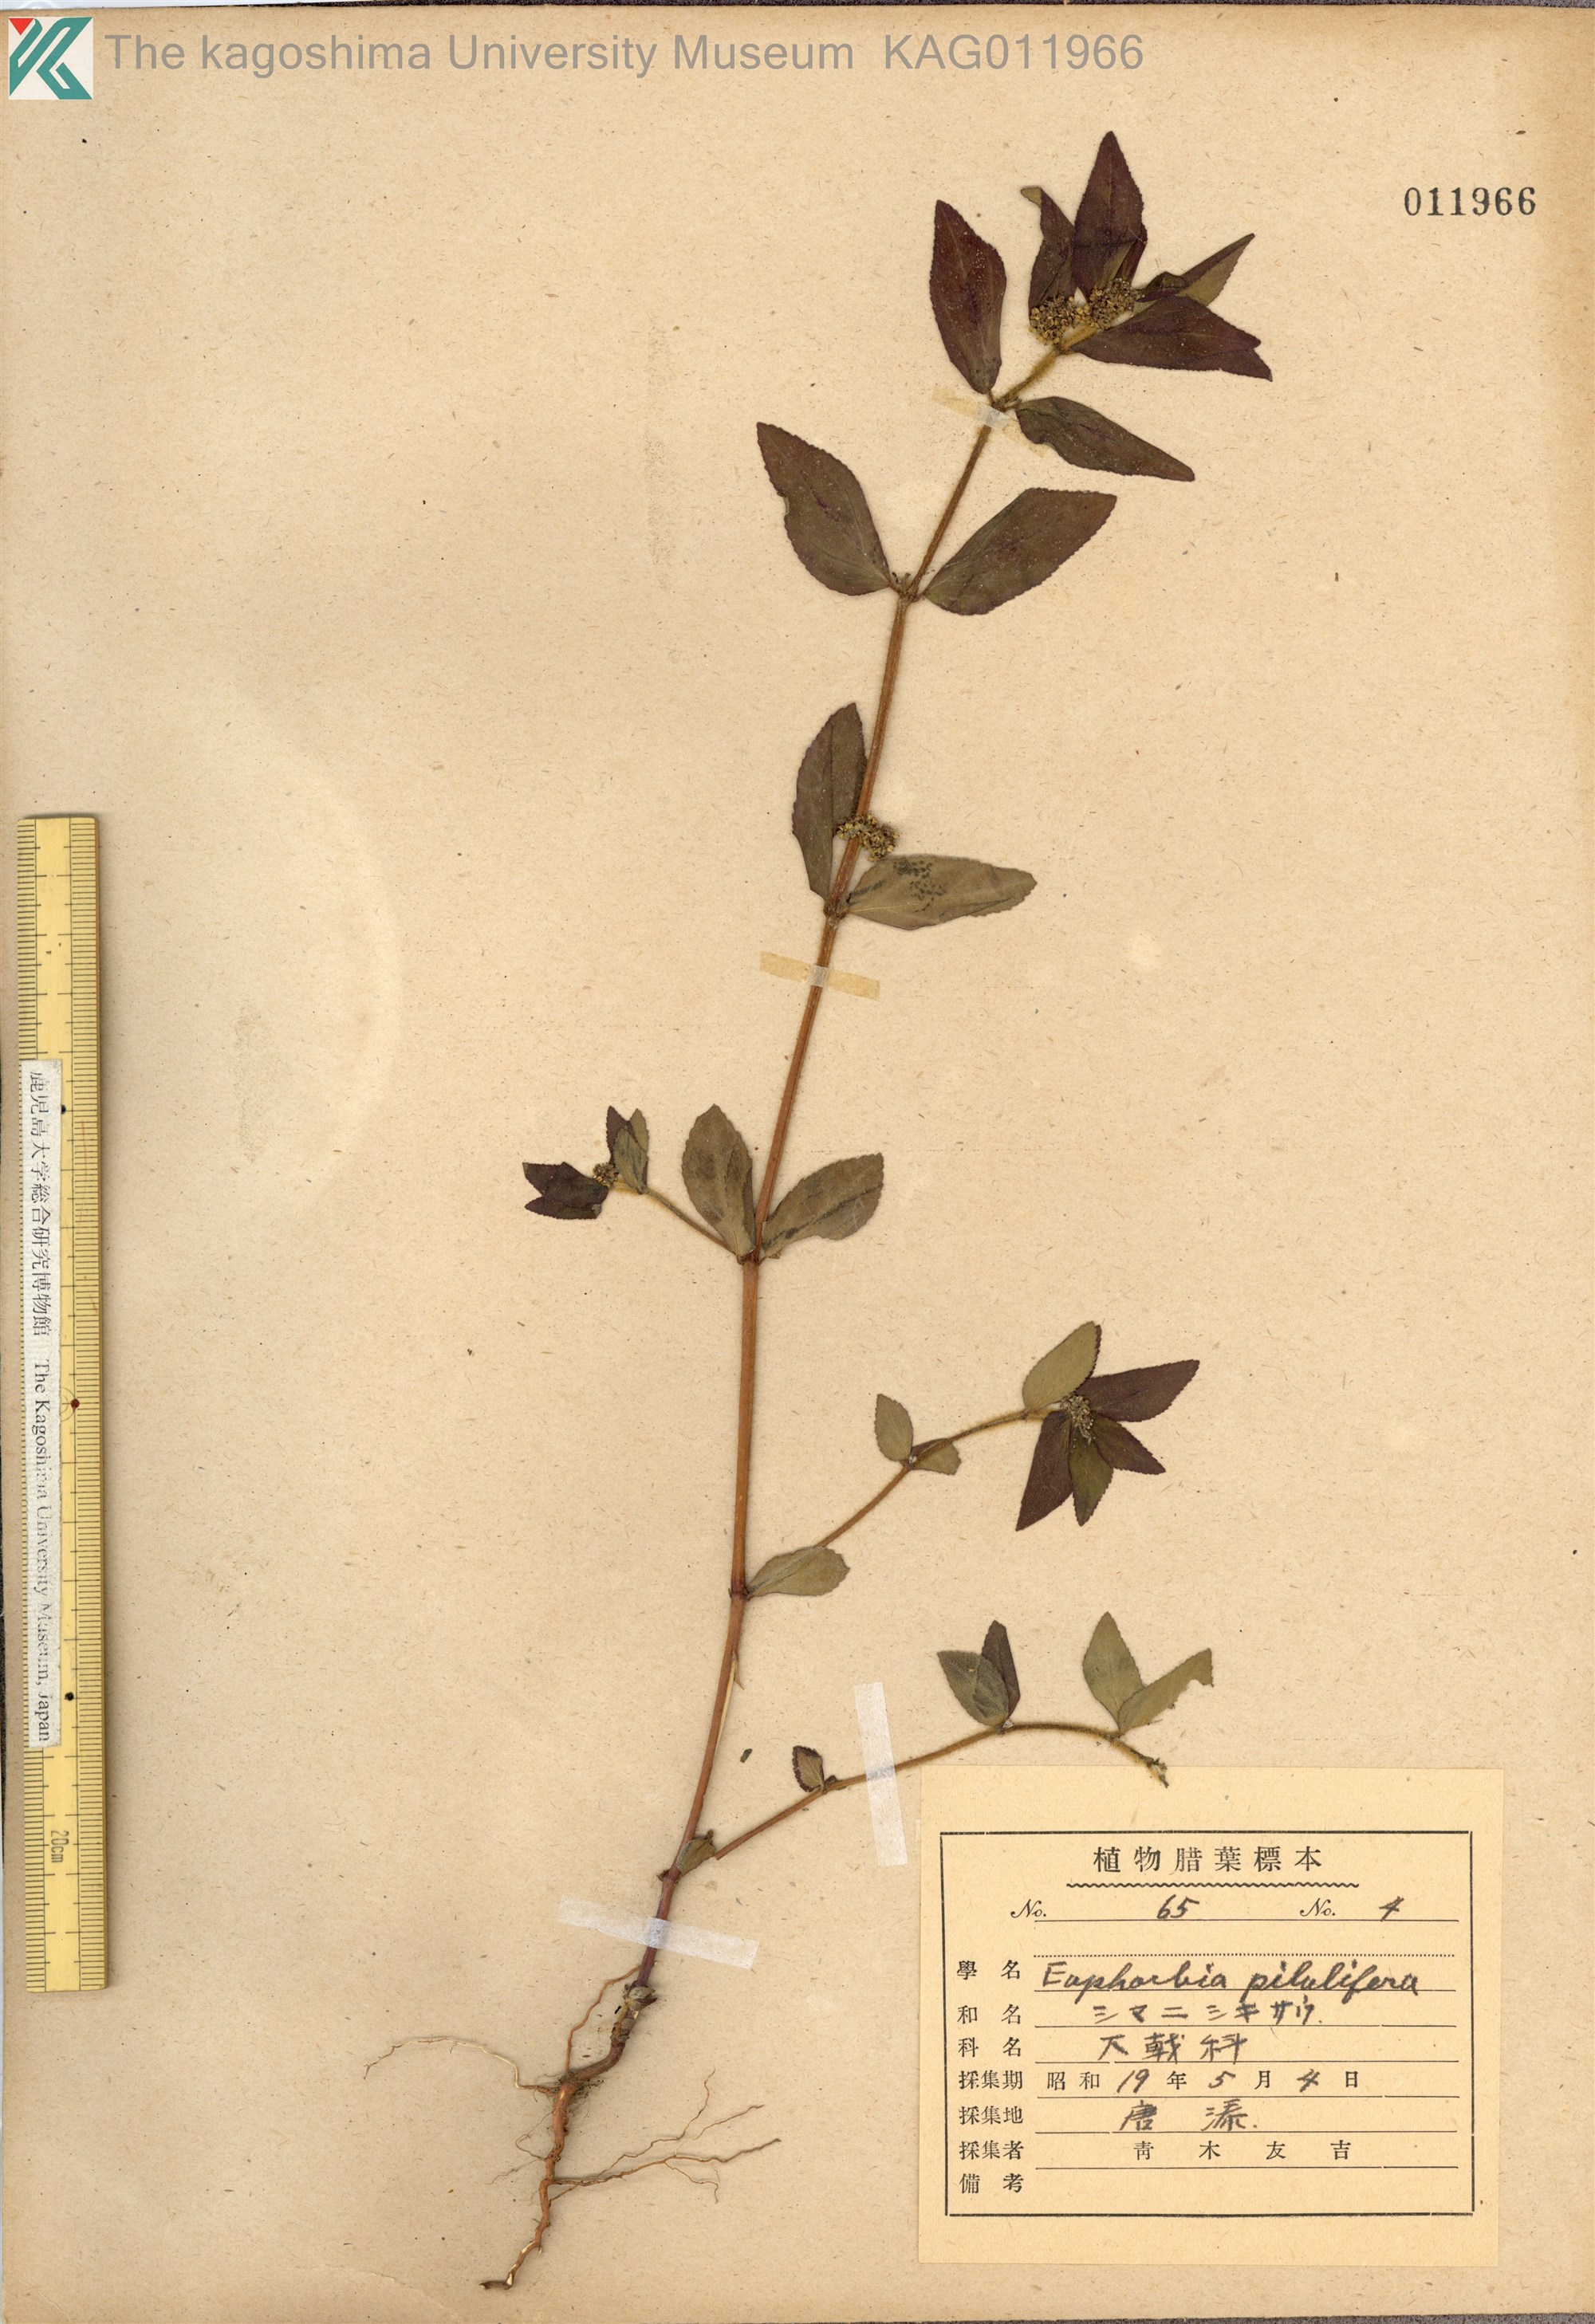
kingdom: Plantae
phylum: Tracheophyta
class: Magnoliopsida
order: Malpighiales
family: Euphorbiaceae
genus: Euphorbia
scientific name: Euphorbia hirta
